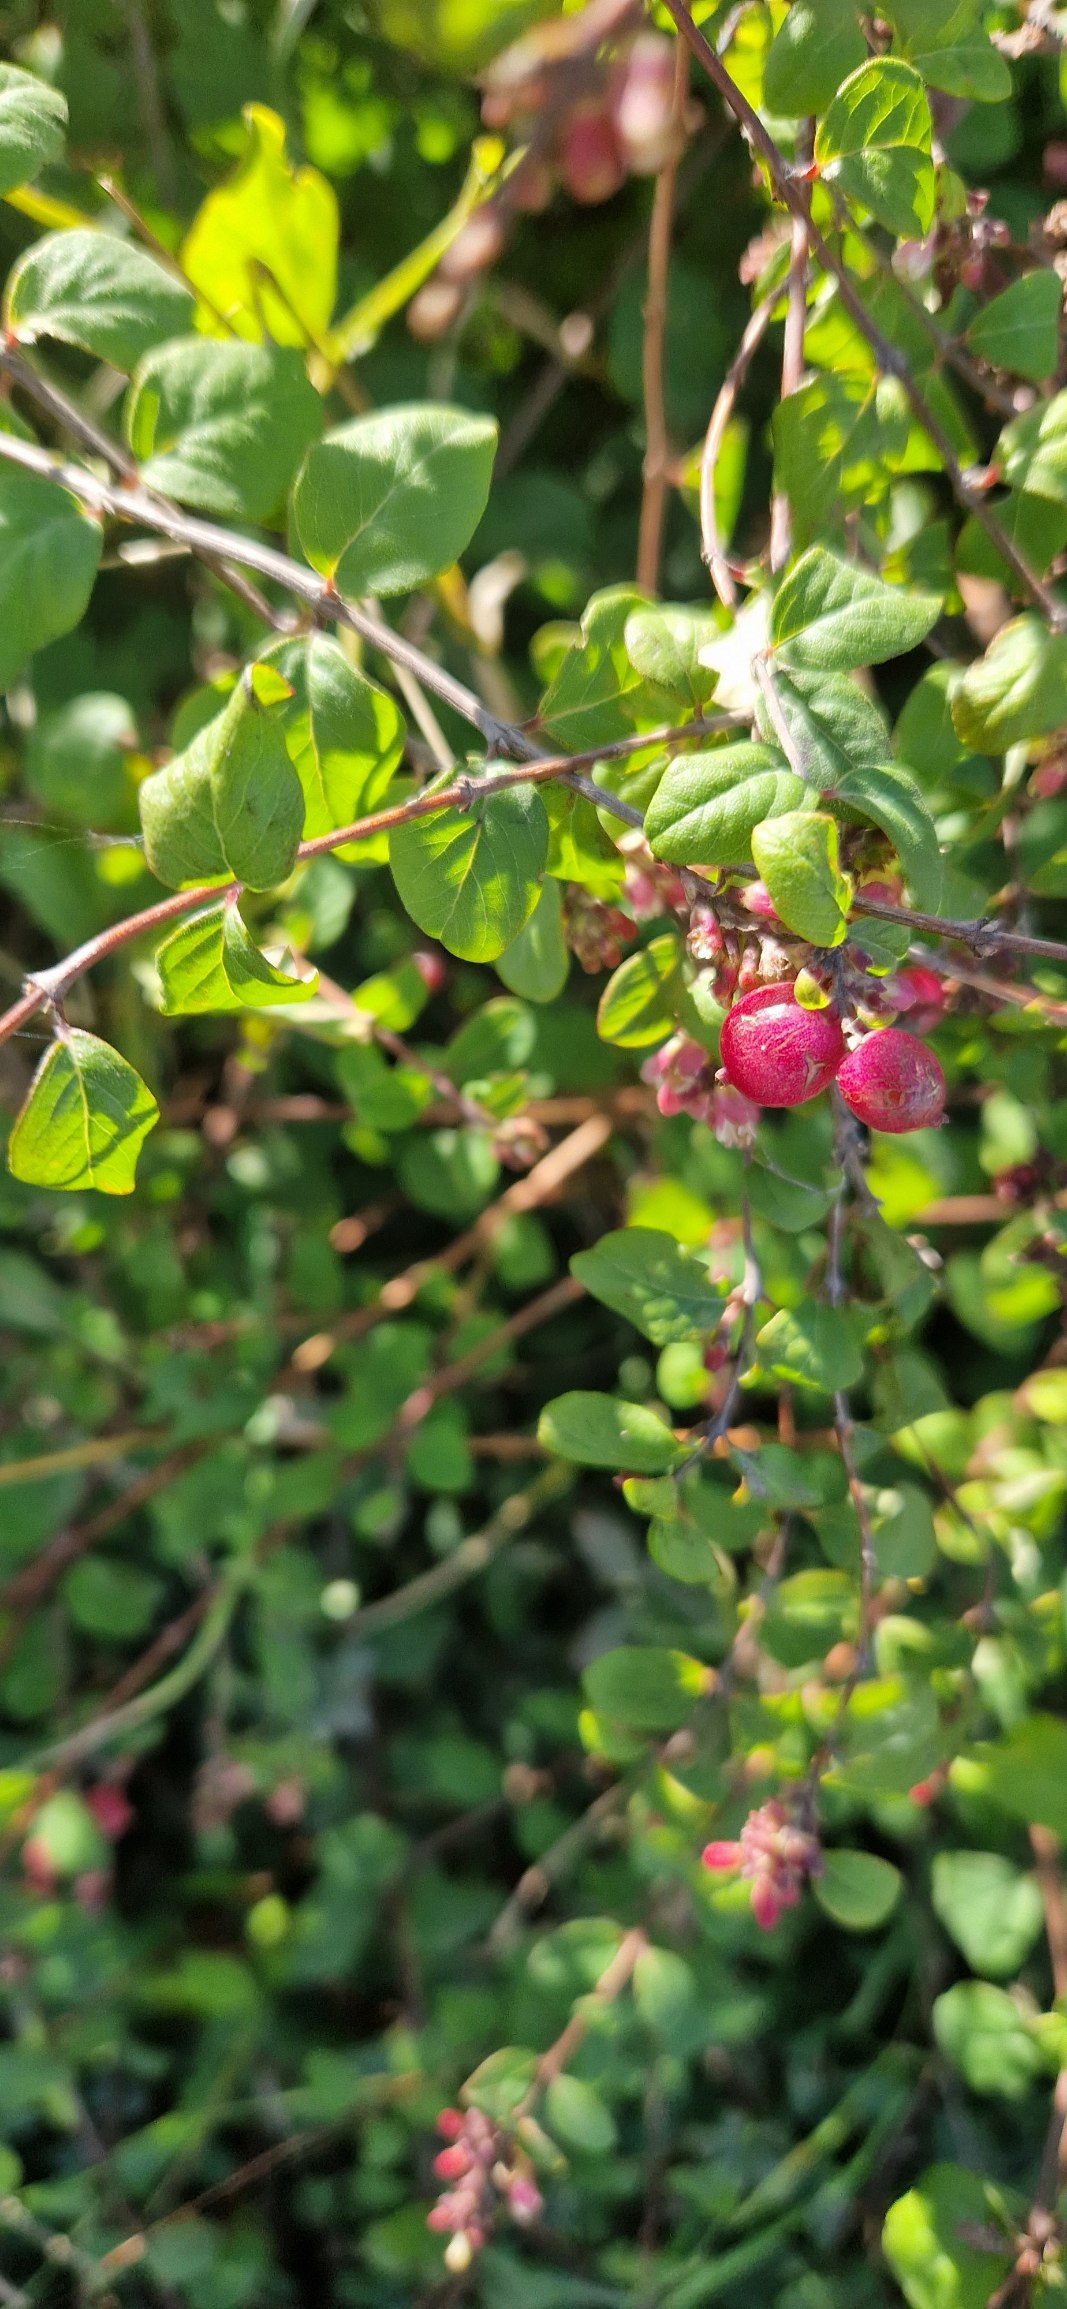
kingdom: Plantae
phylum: Tracheophyta
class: Magnoliopsida
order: Dipsacales
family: Caprifoliaceae
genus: Symphoricarpos
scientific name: Symphoricarpos chenaultii
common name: Rød snebær
